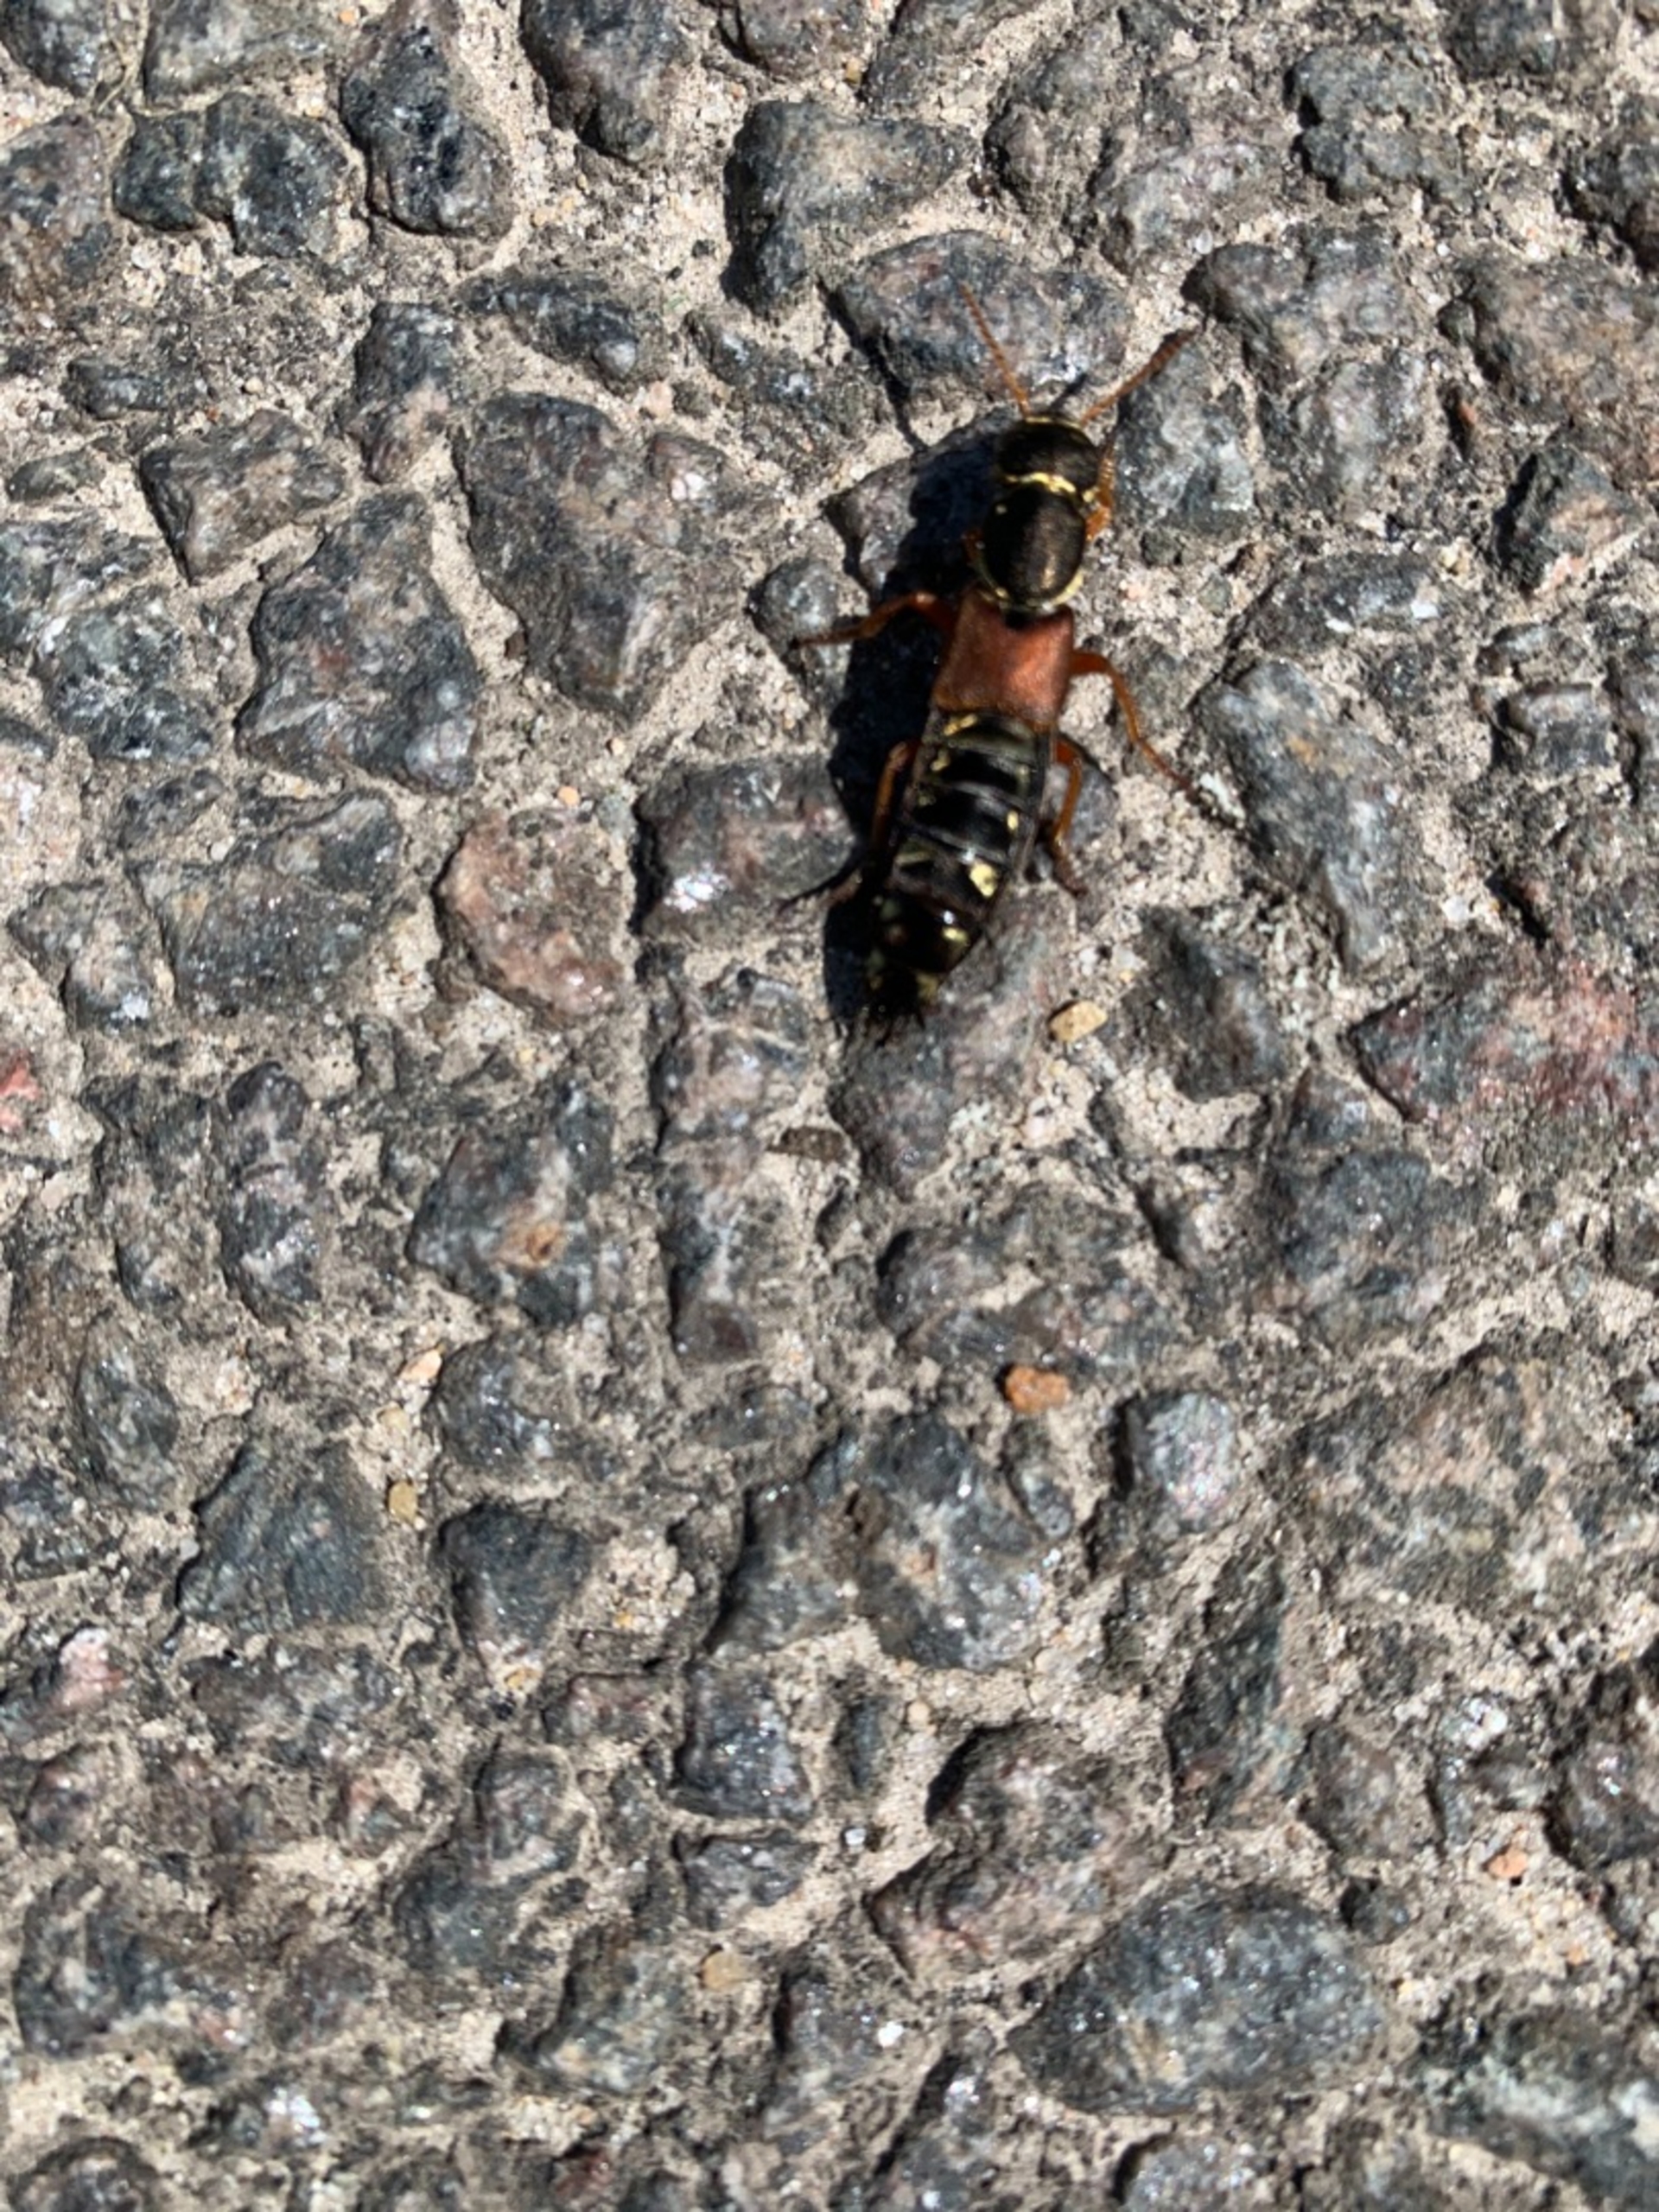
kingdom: Animalia
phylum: Arthropoda
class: Insecta
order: Coleoptera
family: Staphylinidae
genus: Staphylinus
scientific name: Staphylinus
